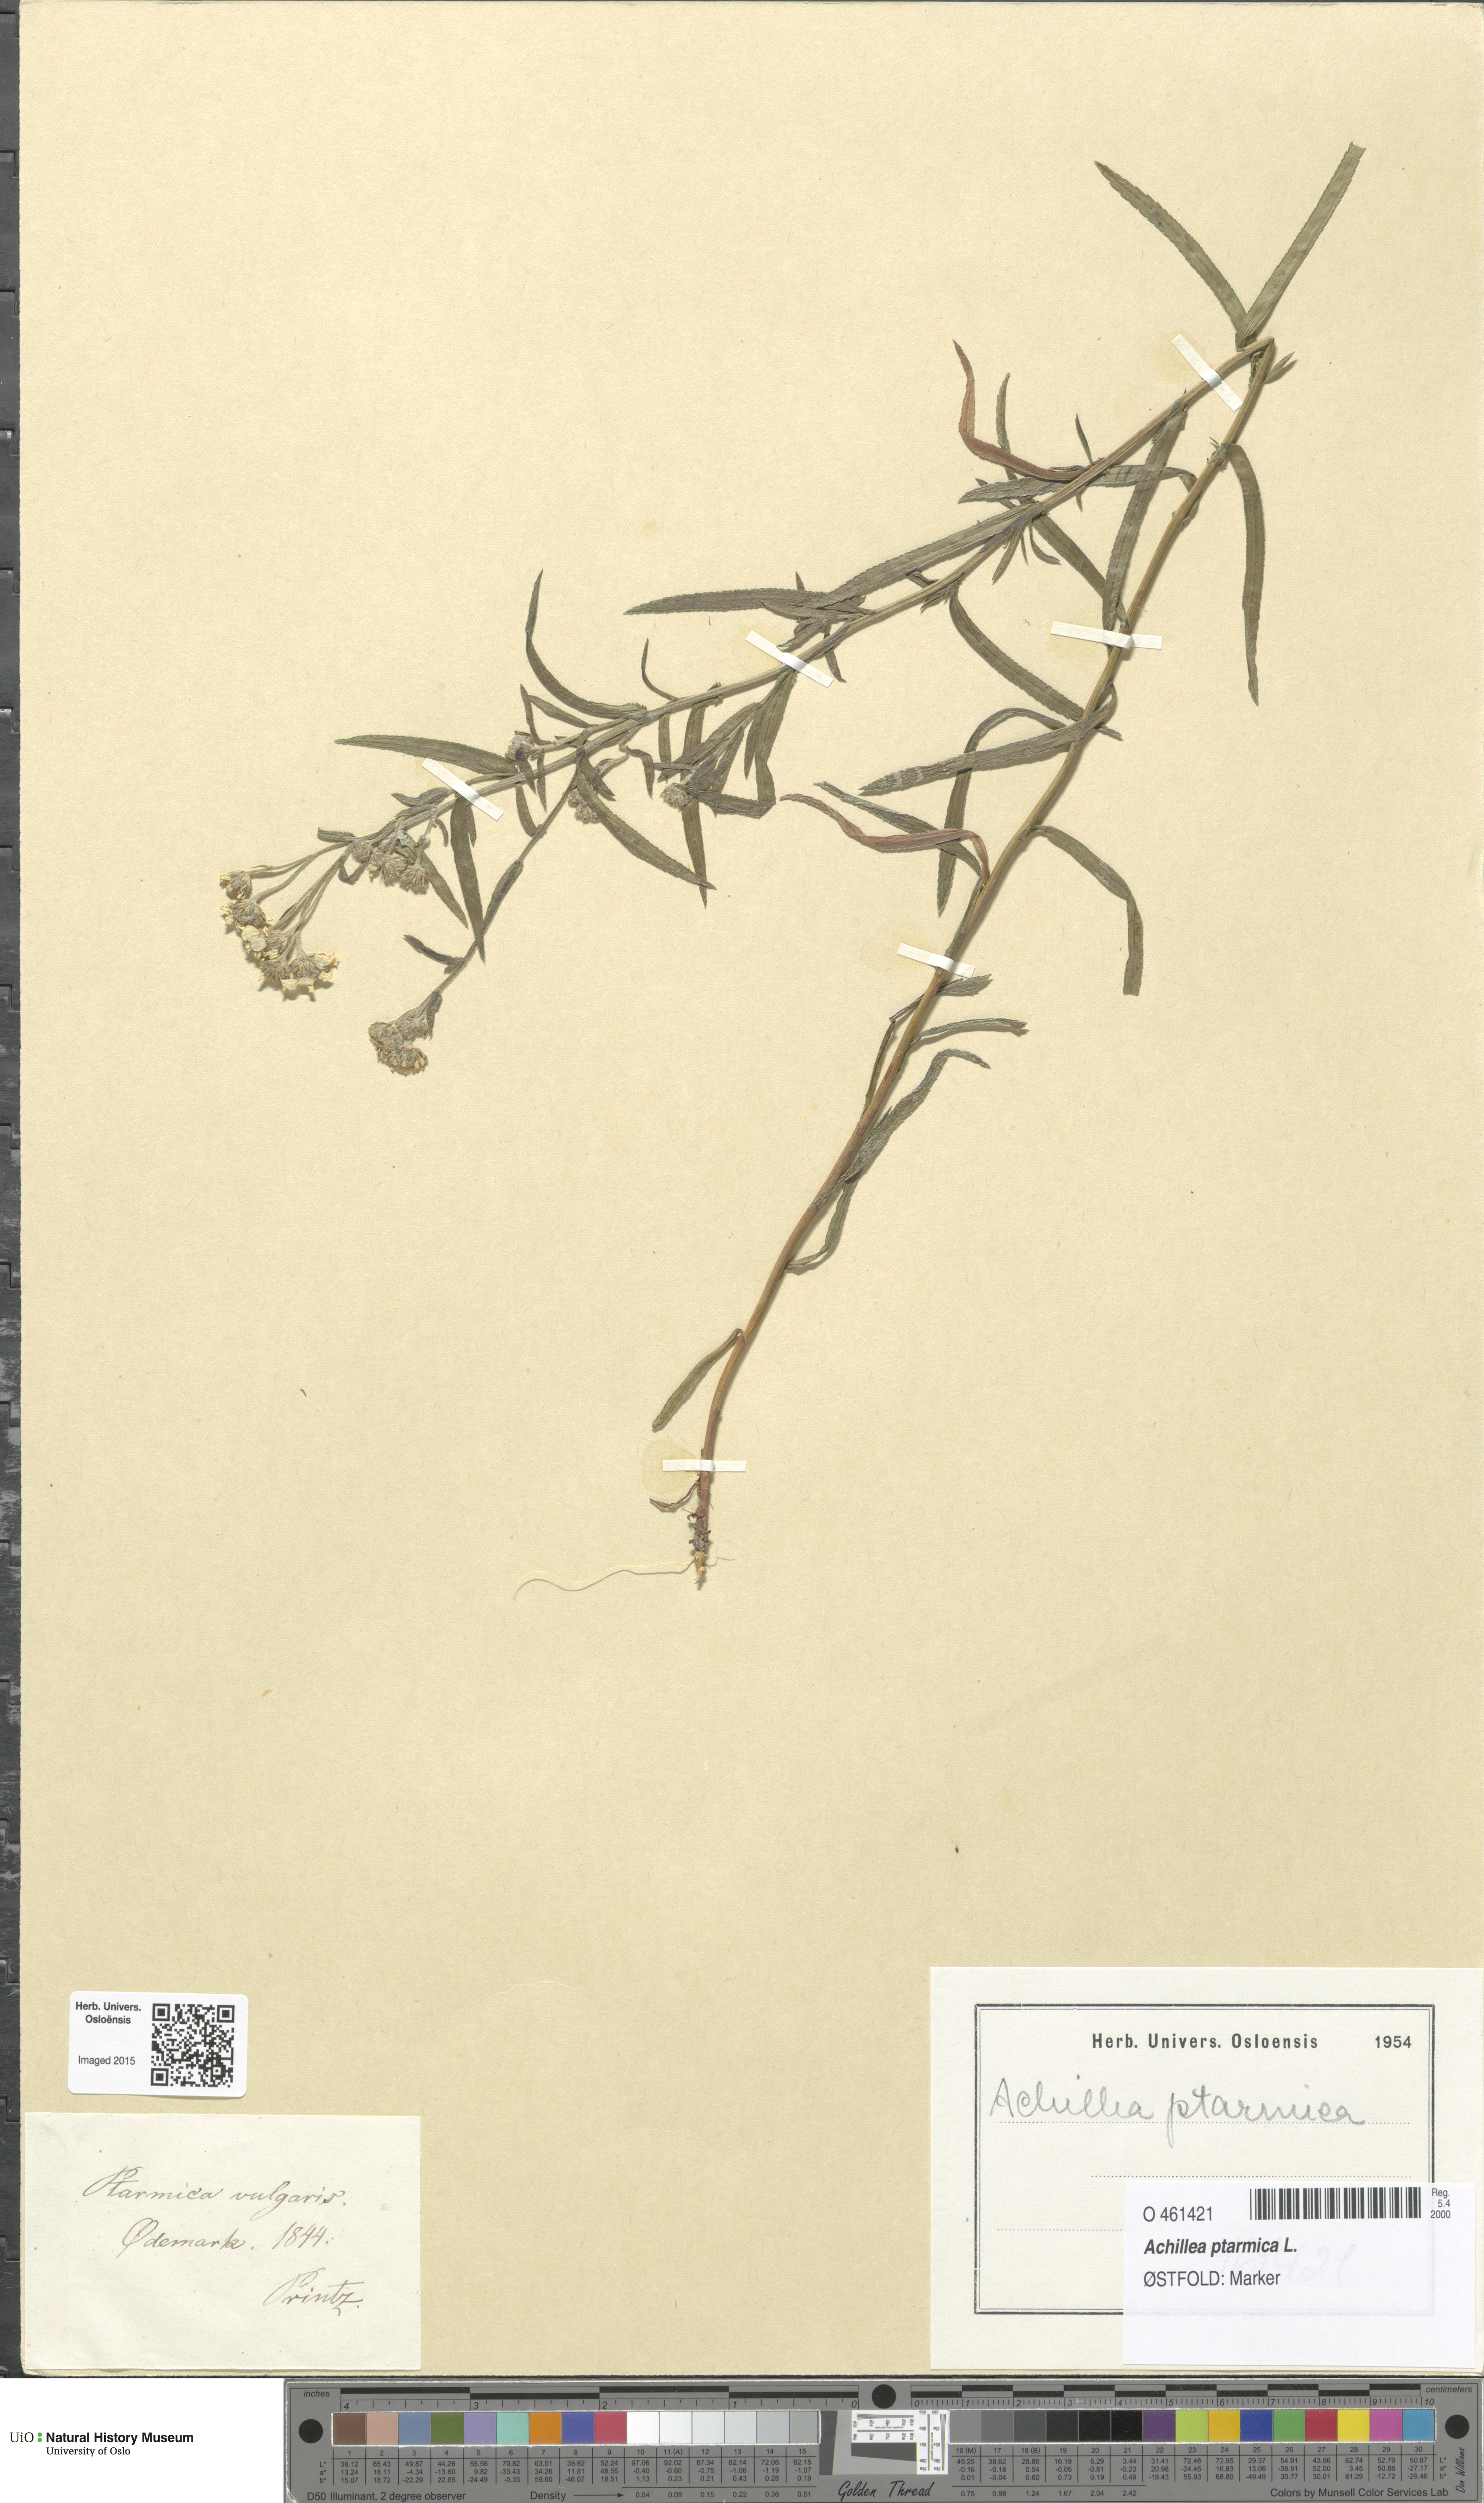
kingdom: Plantae
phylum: Tracheophyta
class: Magnoliopsida
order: Asterales
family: Asteraceae
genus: Achillea
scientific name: Achillea ptarmica
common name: Sneezeweed
